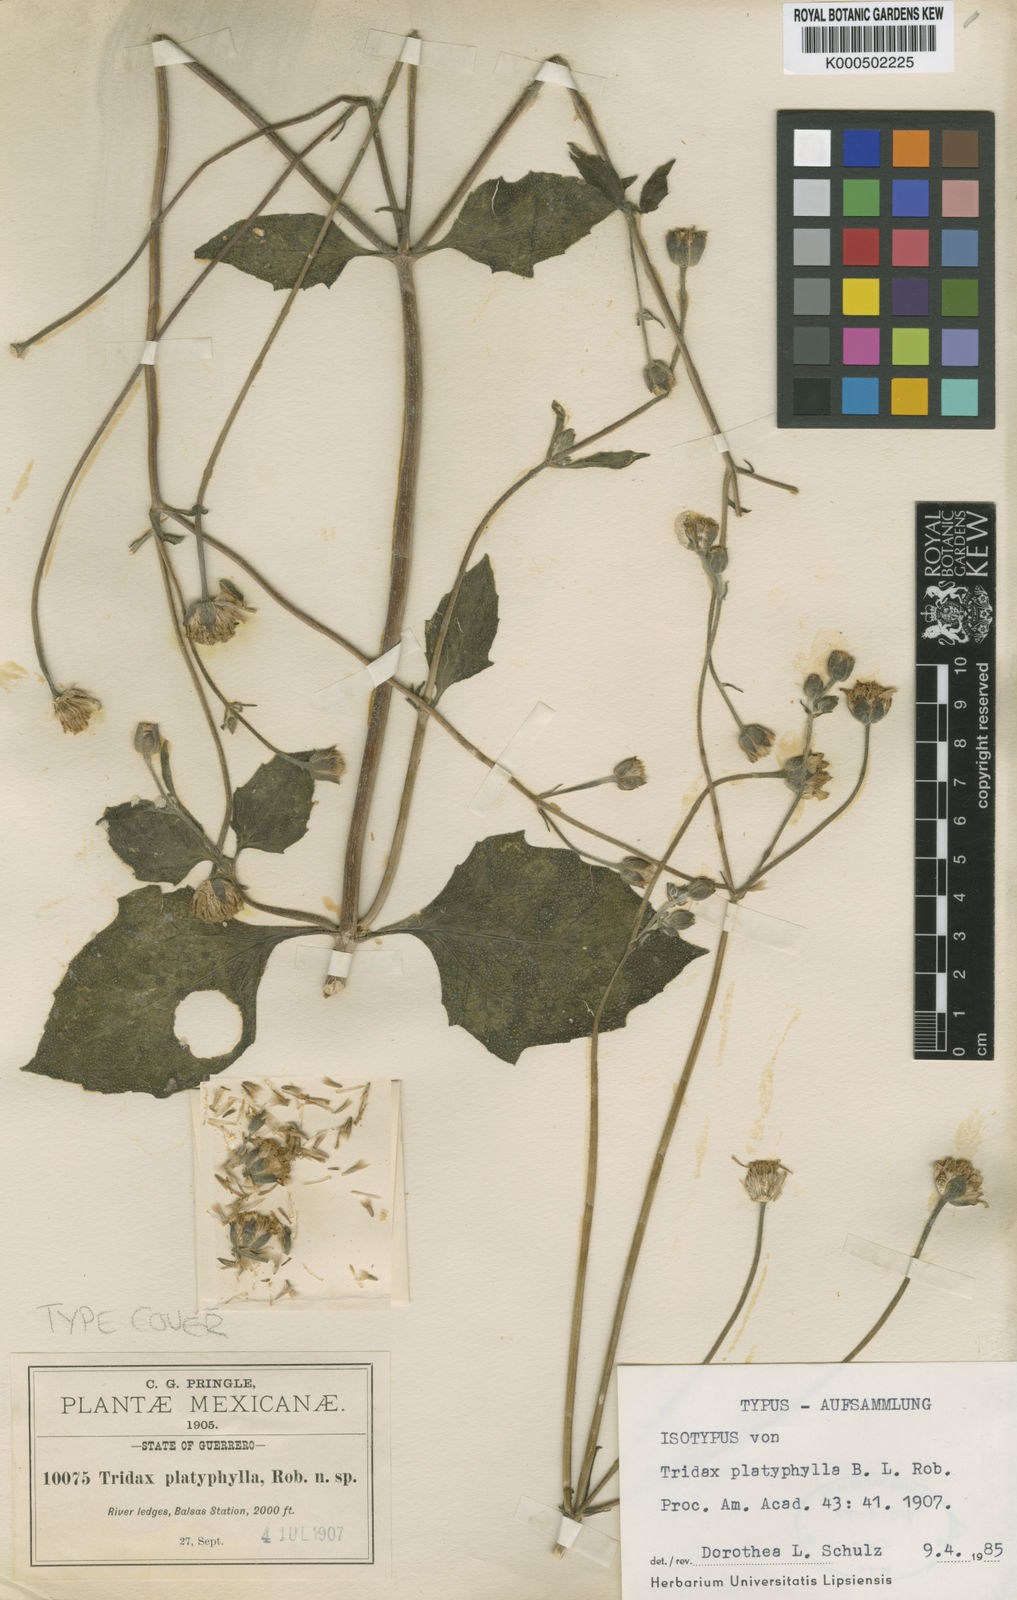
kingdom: Plantae
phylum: Tracheophyta
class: Magnoliopsida
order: Asterales
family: Asteraceae
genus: Tridax
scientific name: Tridax platyphylla
